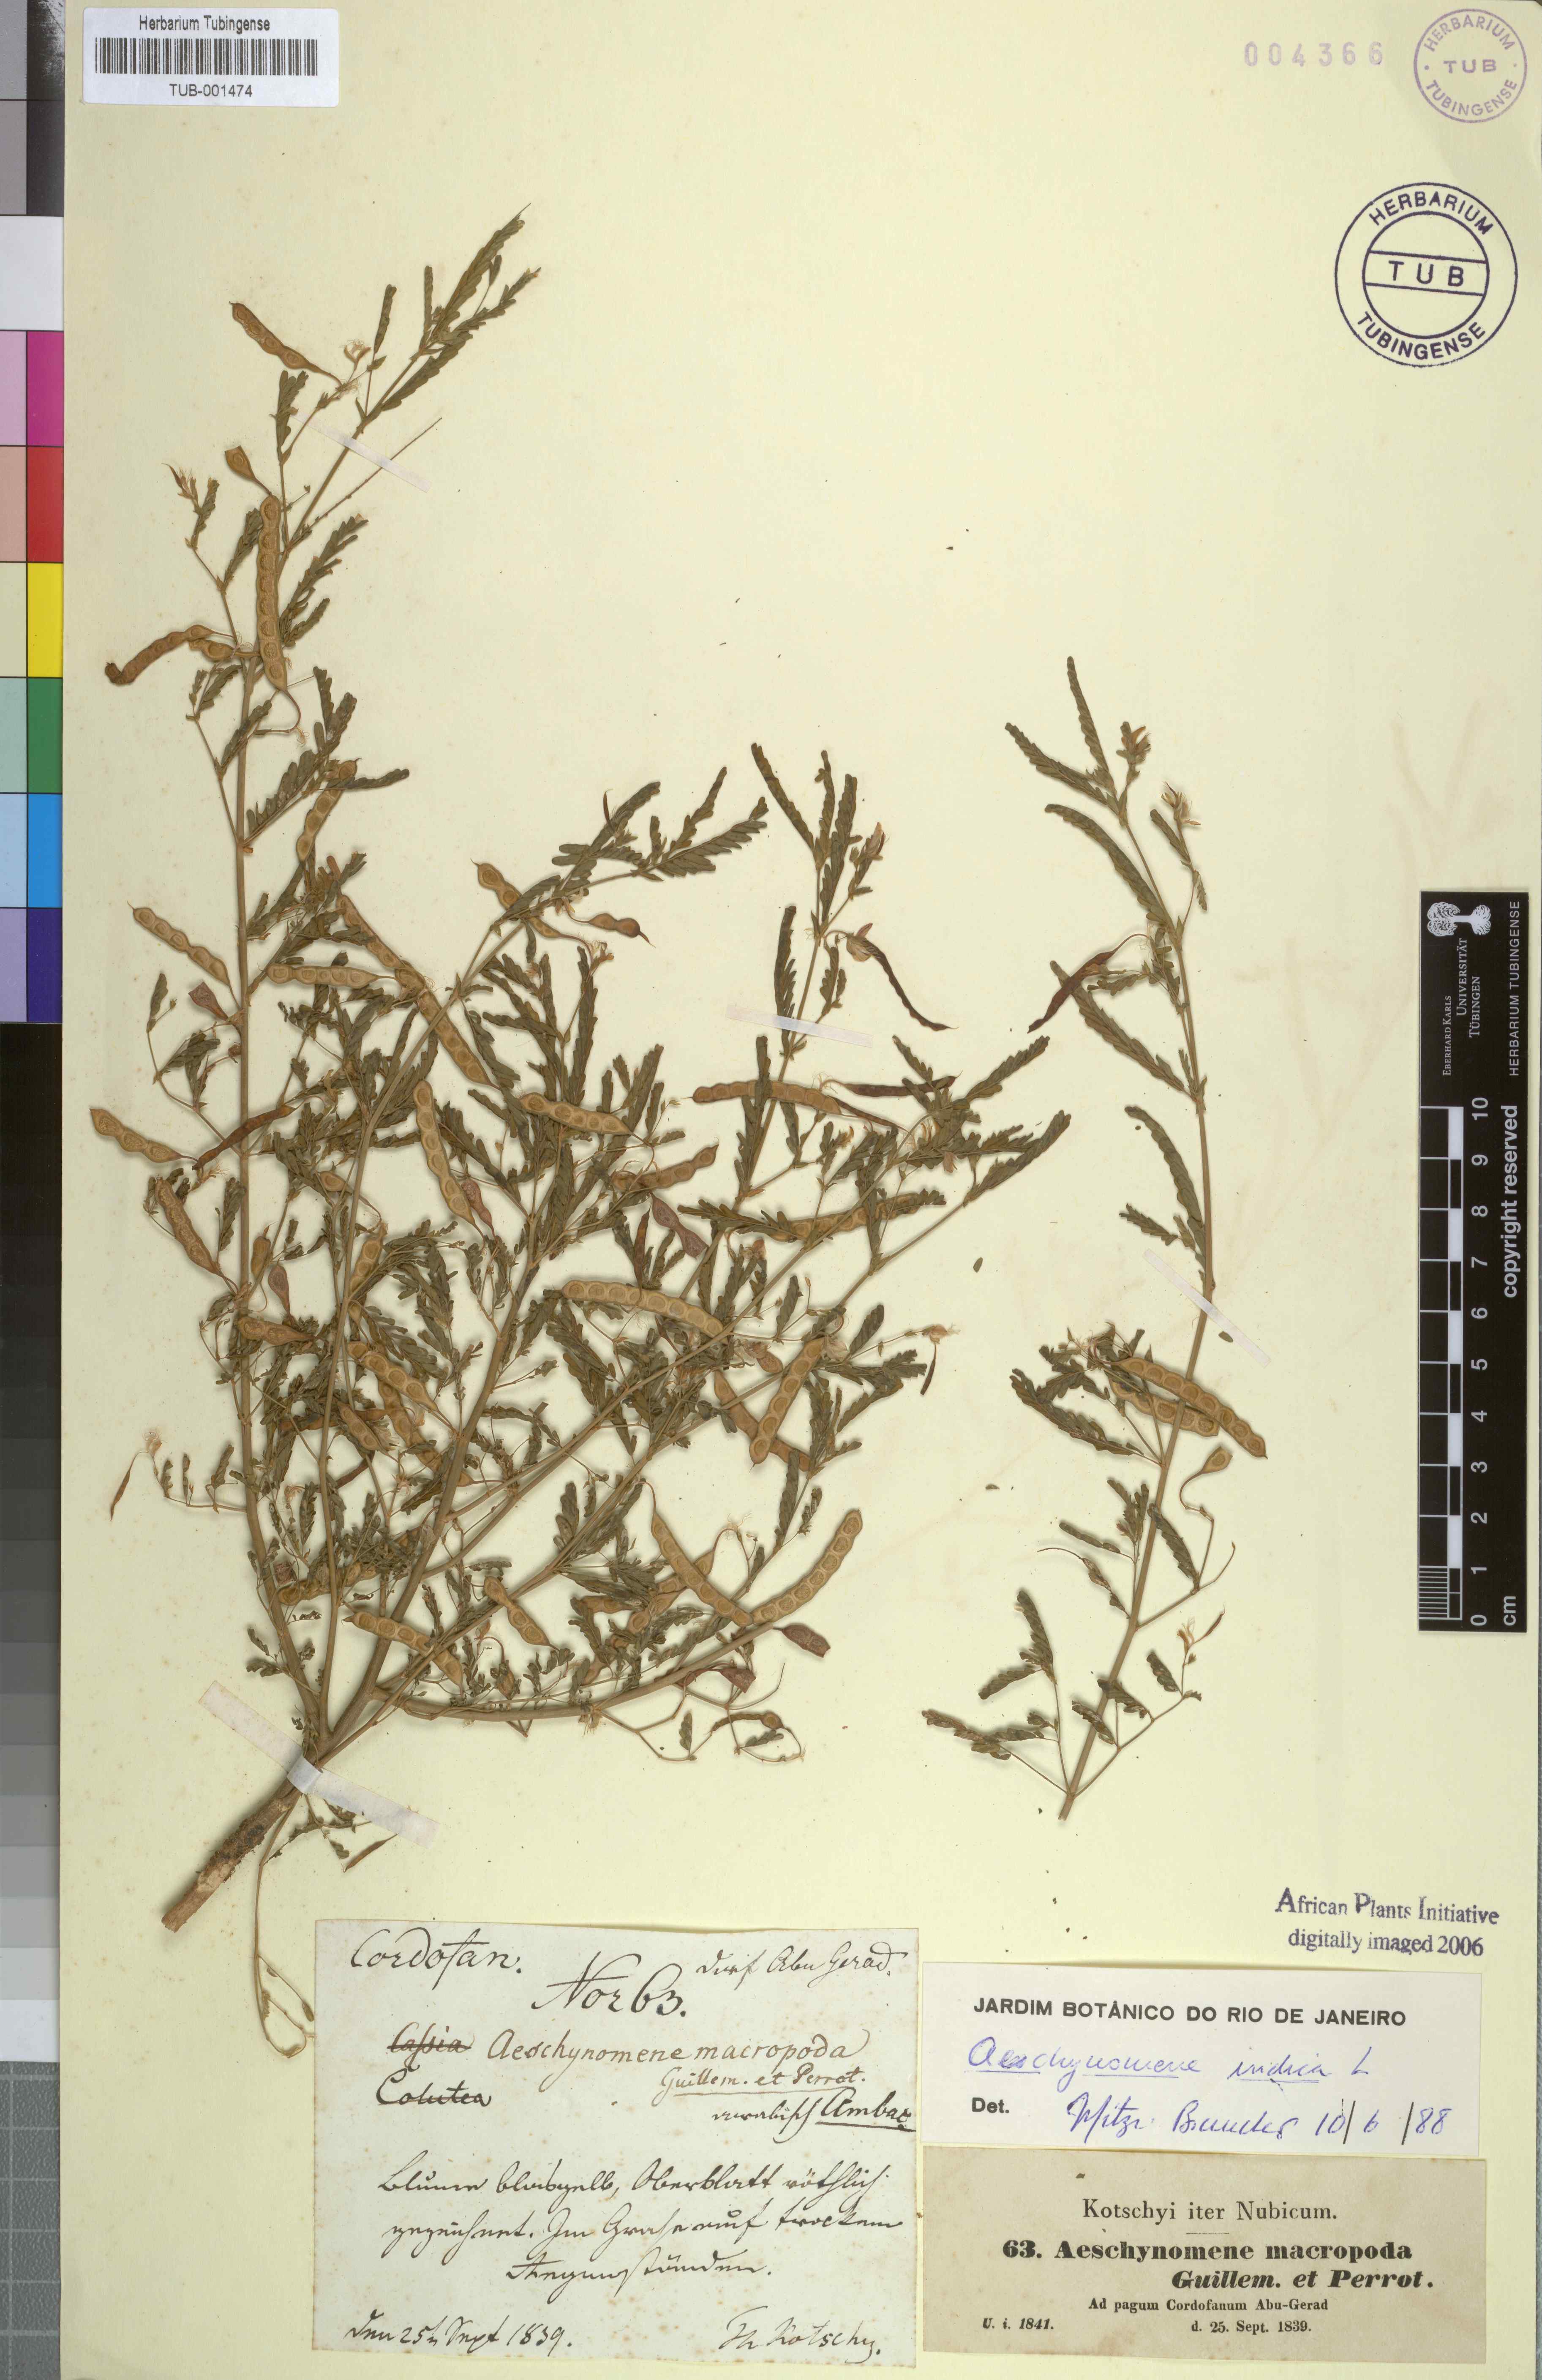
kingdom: Plantae
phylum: Tracheophyta
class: Magnoliopsida
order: Fabales
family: Fabaceae
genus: Aeschynomene
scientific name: Aeschynomene indica
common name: Indian jointvetch
